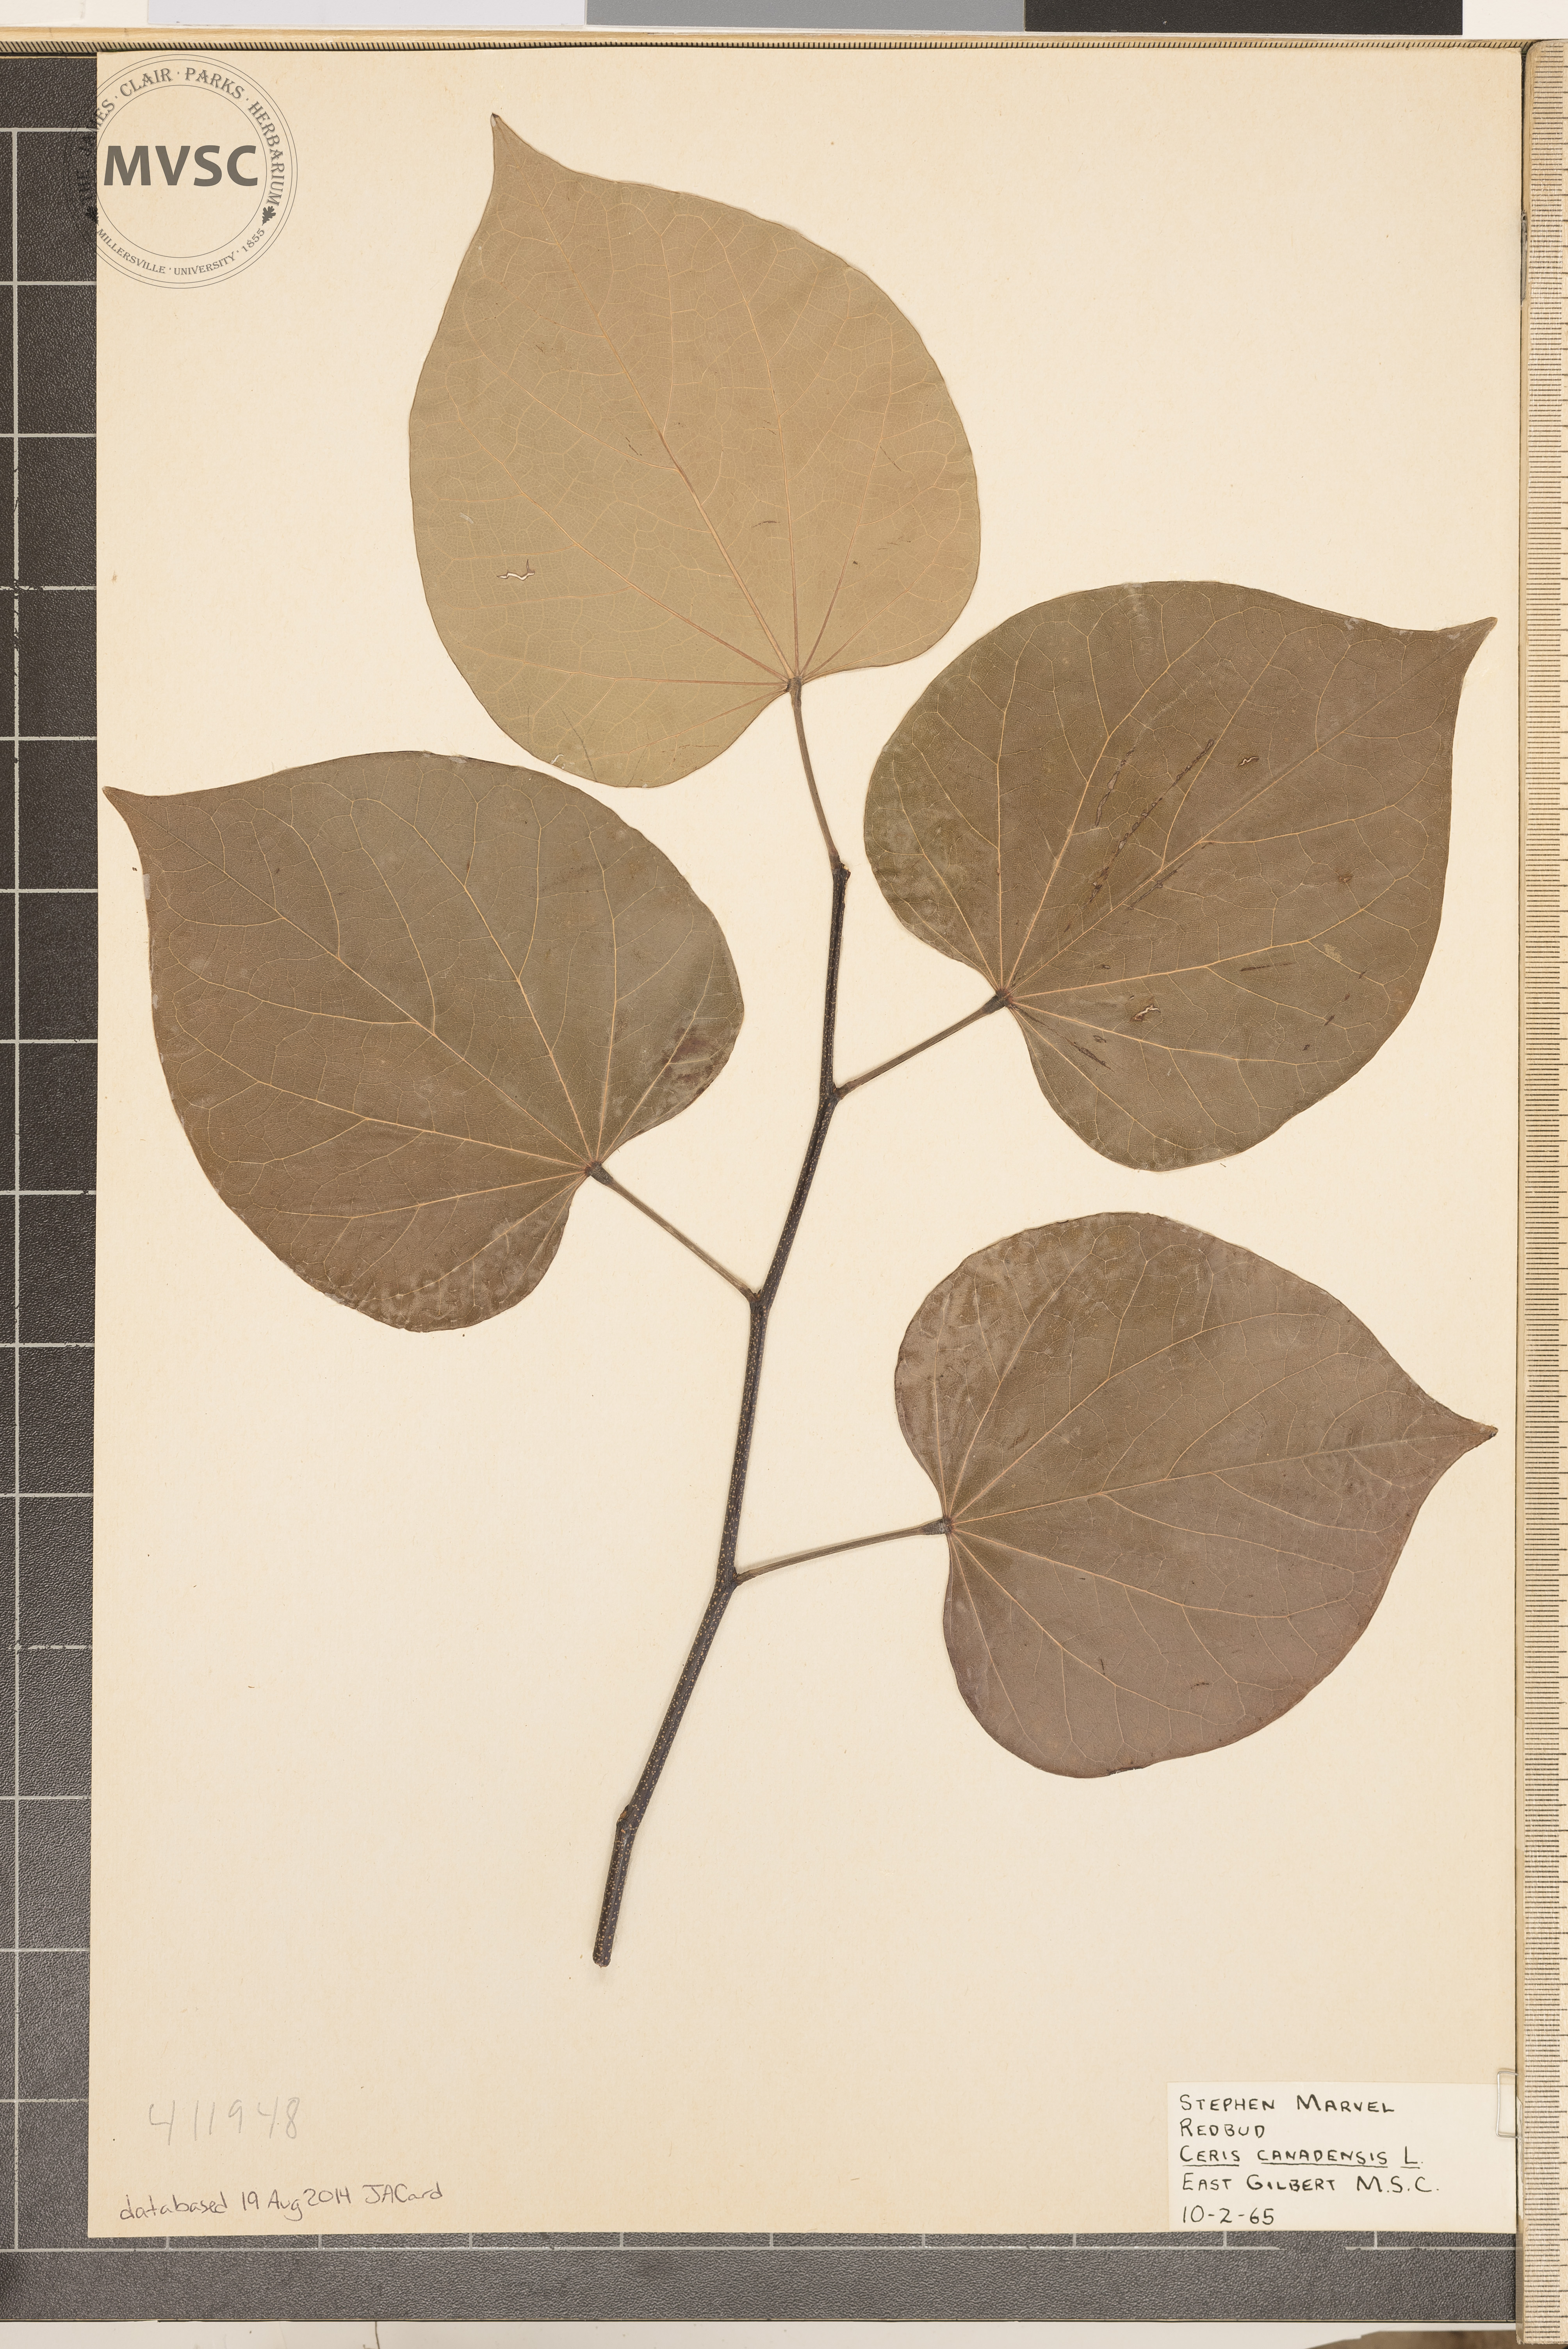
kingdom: Plantae
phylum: Tracheophyta
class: Magnoliopsida
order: Fabales
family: Fabaceae
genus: Cercis
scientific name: Cercis canadensis
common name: Eastern redbud
